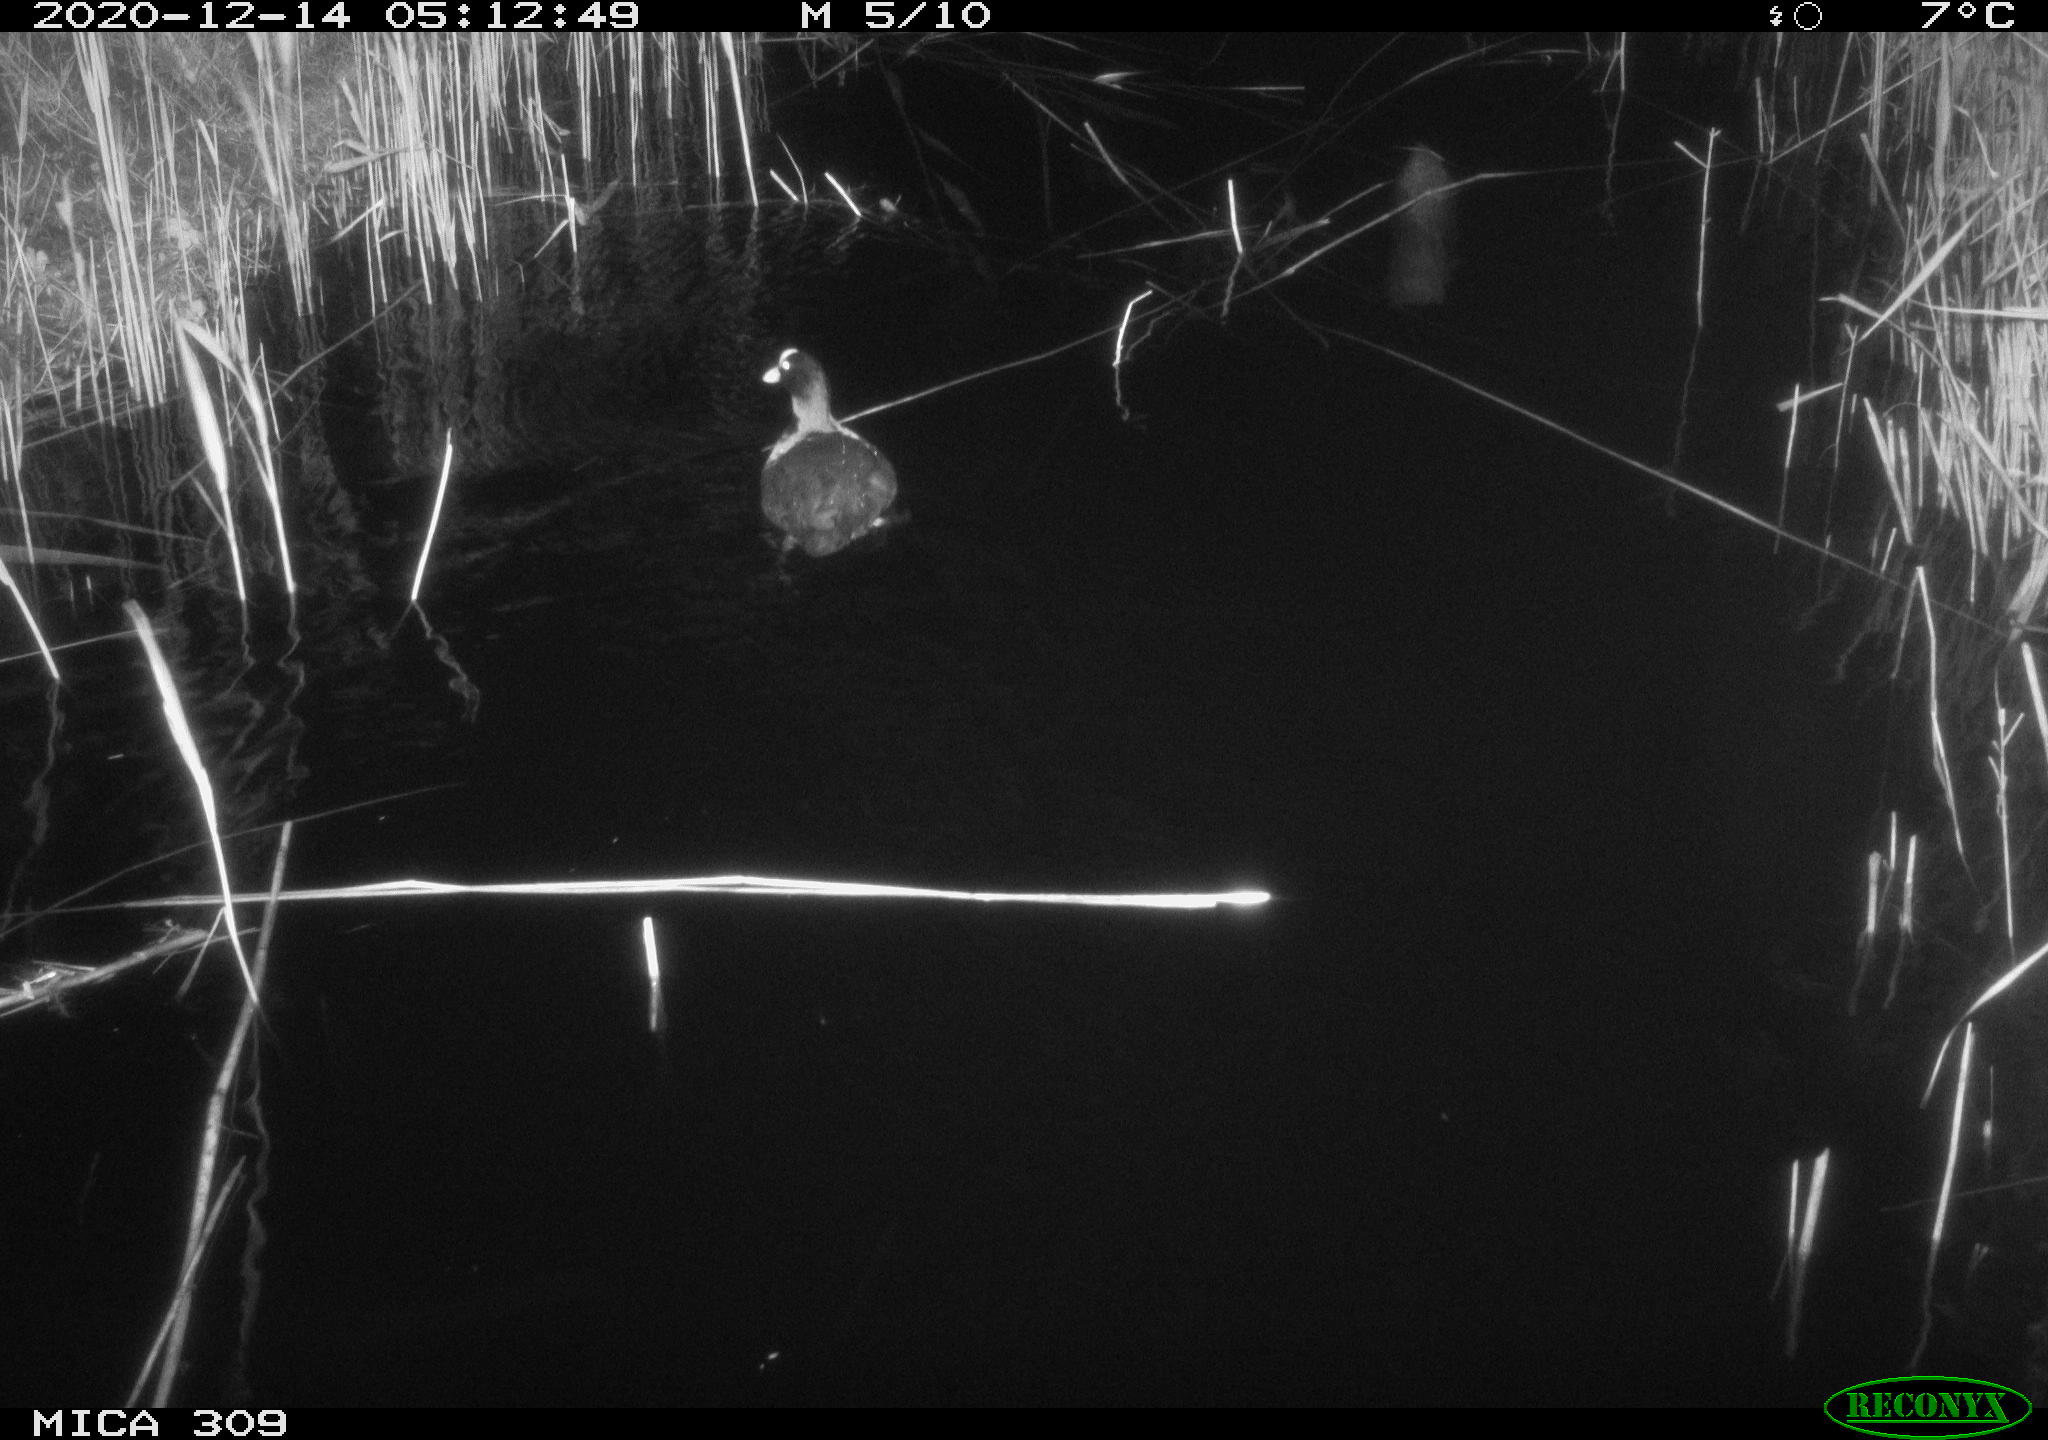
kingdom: Animalia
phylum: Chordata
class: Aves
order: Gruiformes
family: Rallidae
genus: Gallinula
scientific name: Gallinula chloropus
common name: Common moorhen
